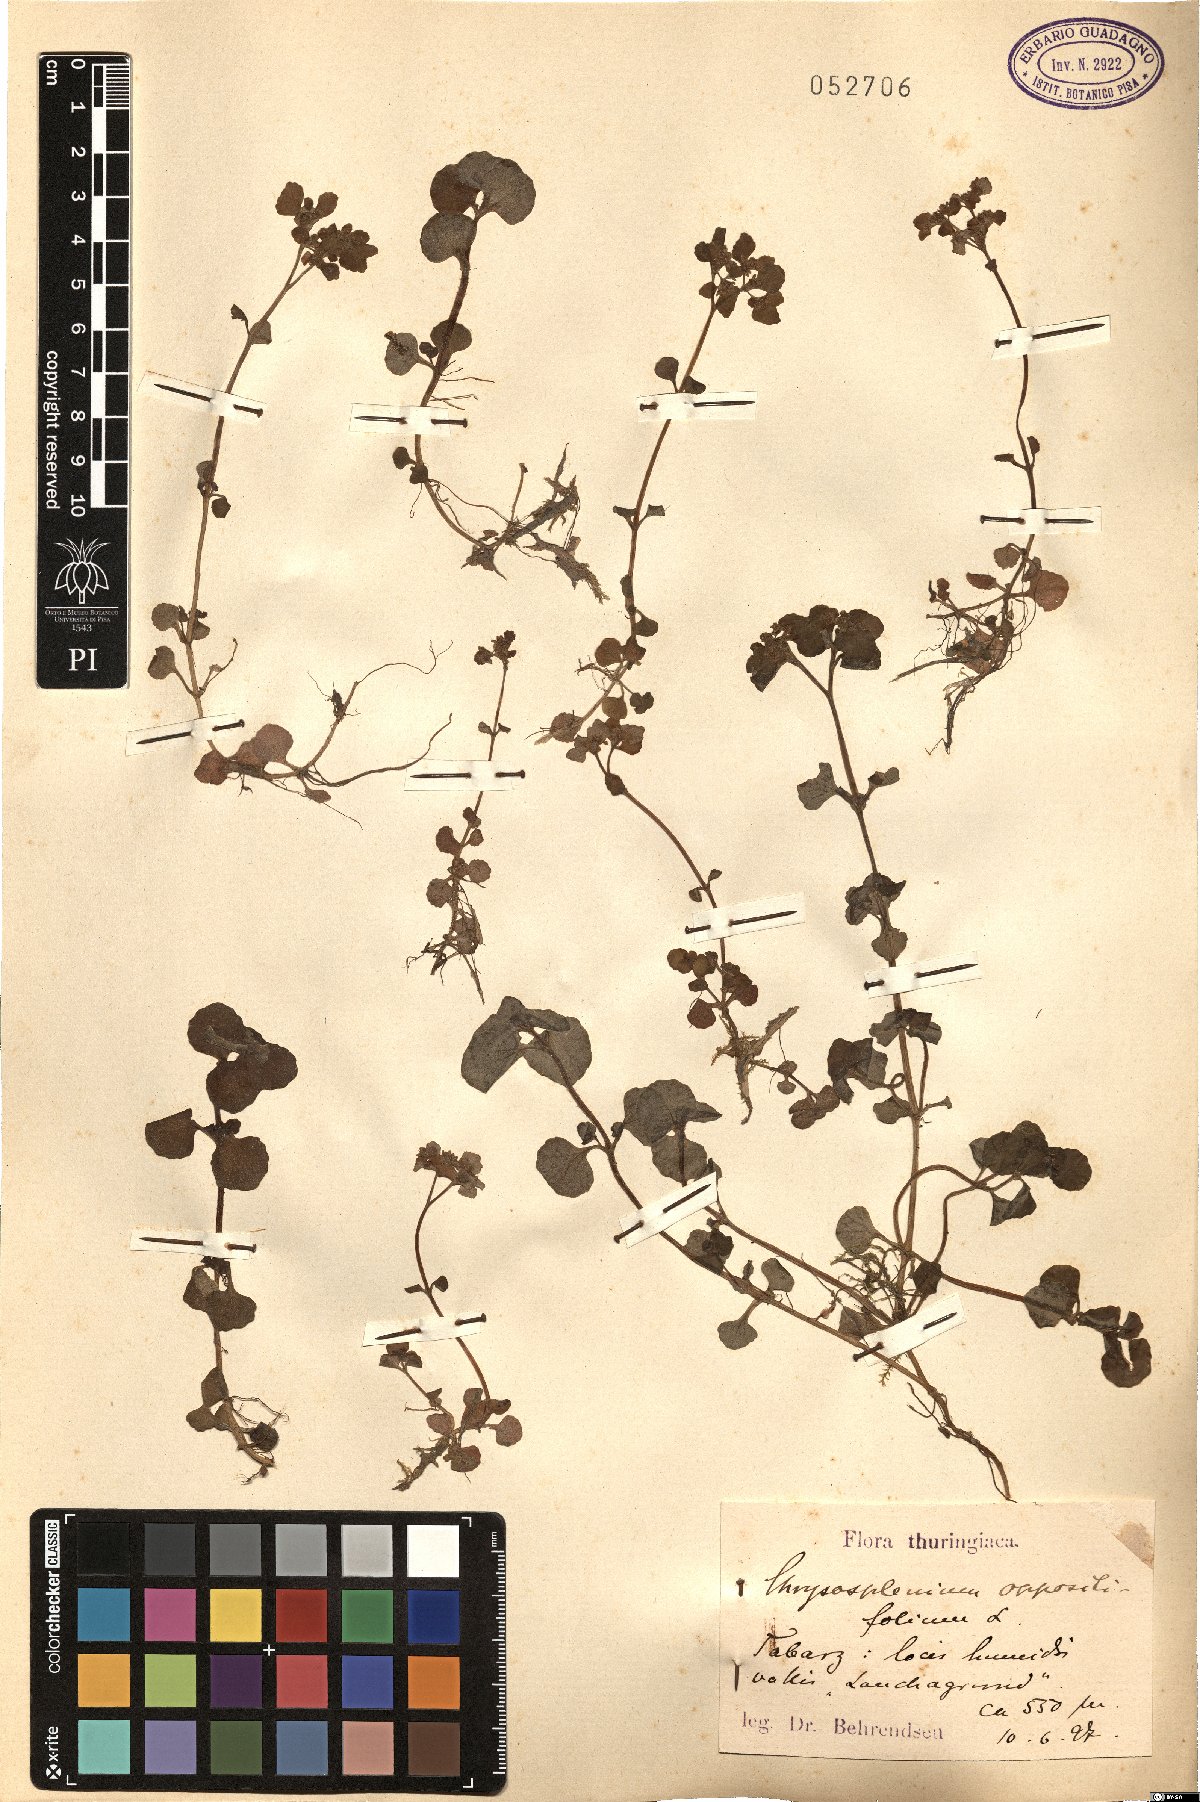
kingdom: Plantae
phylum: Tracheophyta
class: Magnoliopsida
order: Saxifragales
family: Saxifragaceae
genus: Chrysosplenium
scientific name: Chrysosplenium oppositifolium
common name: Opposite-leaved golden-saxifrage
